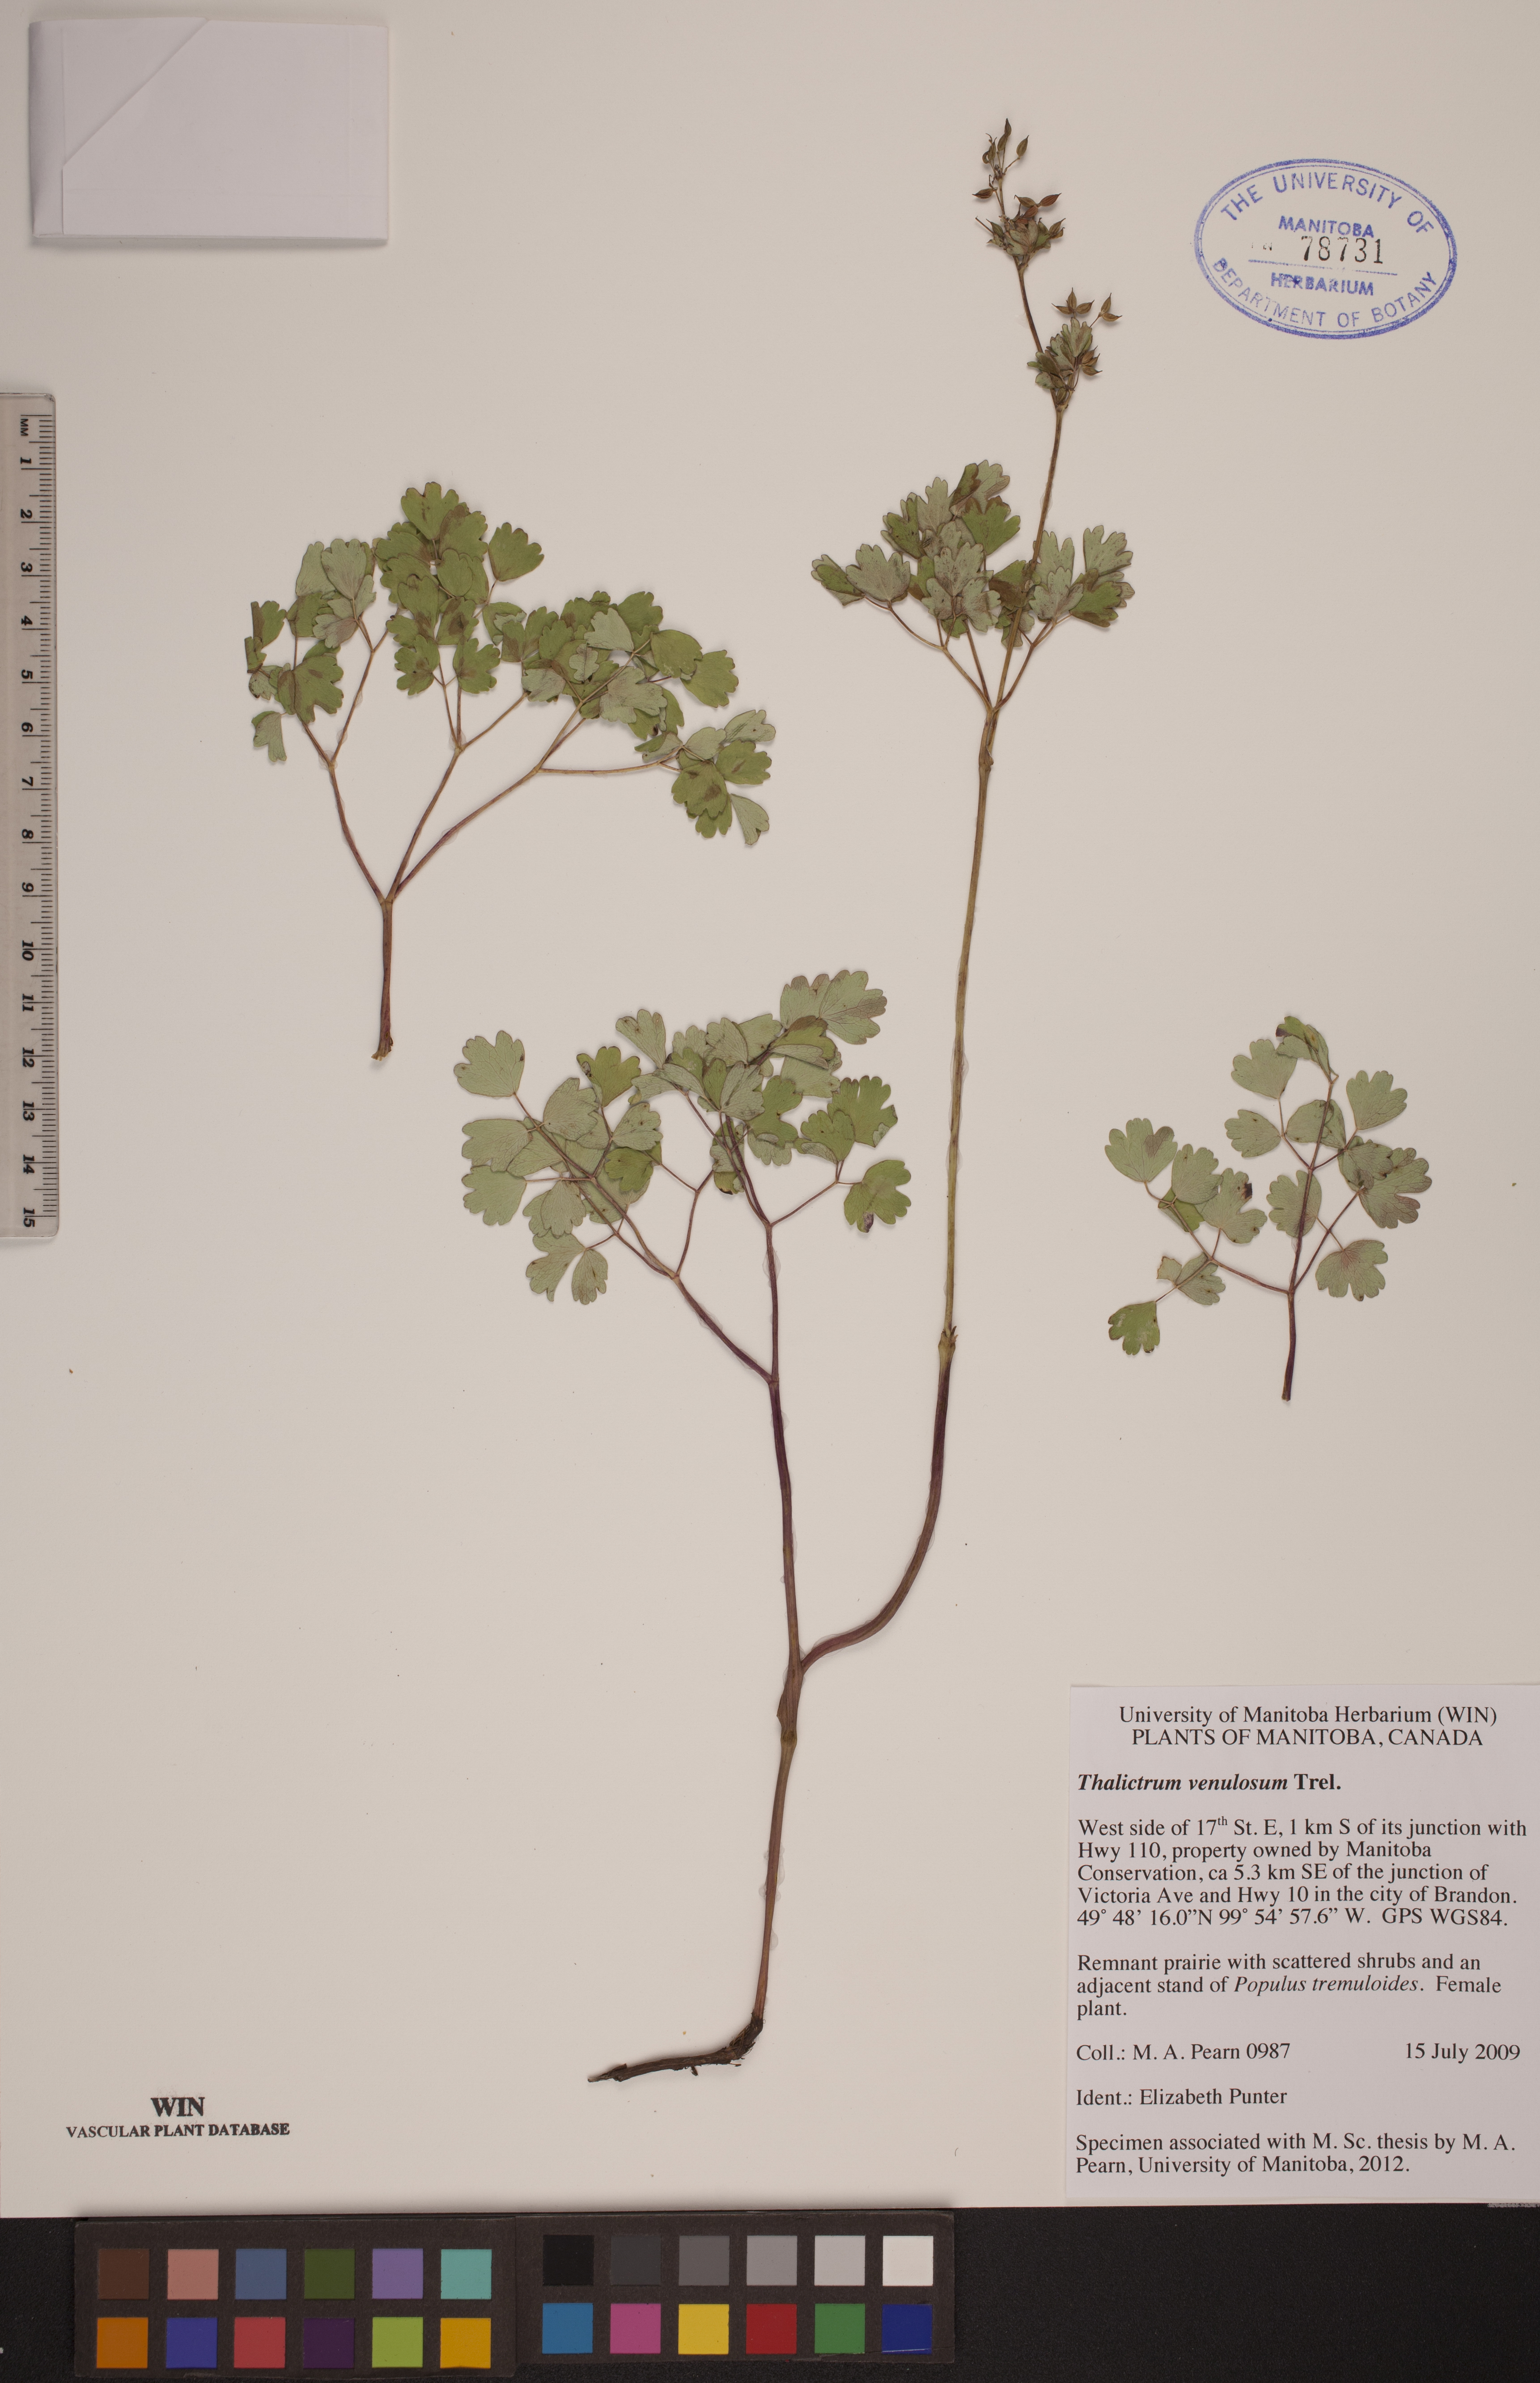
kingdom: Plantae
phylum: Tracheophyta
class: Magnoliopsida
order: Ranunculales
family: Ranunculaceae
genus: Thalictrum
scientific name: Thalictrum venulosum
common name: Early meadow-rue
